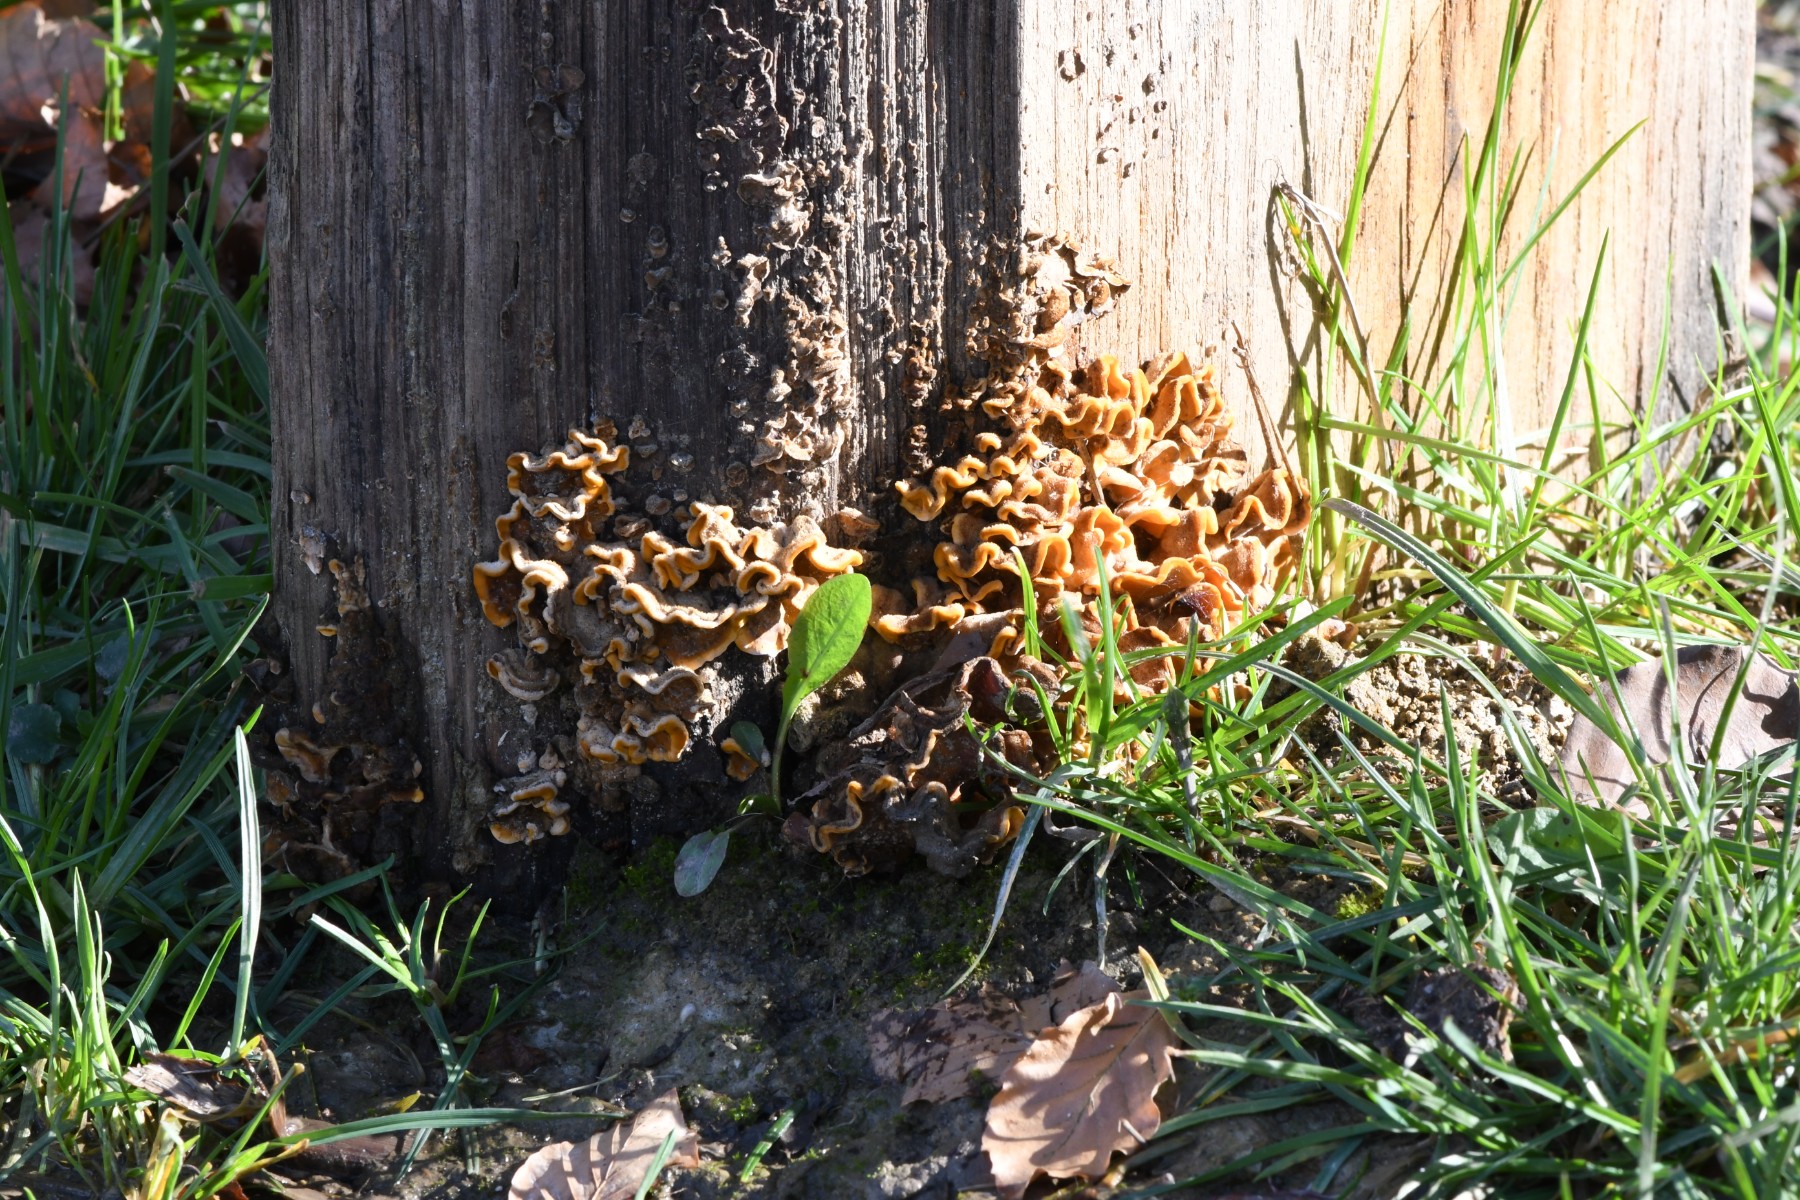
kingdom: Fungi
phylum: Basidiomycota
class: Agaricomycetes
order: Russulales
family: Stereaceae
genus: Stereum
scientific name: Stereum hirsutum
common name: håret lædersvamp
